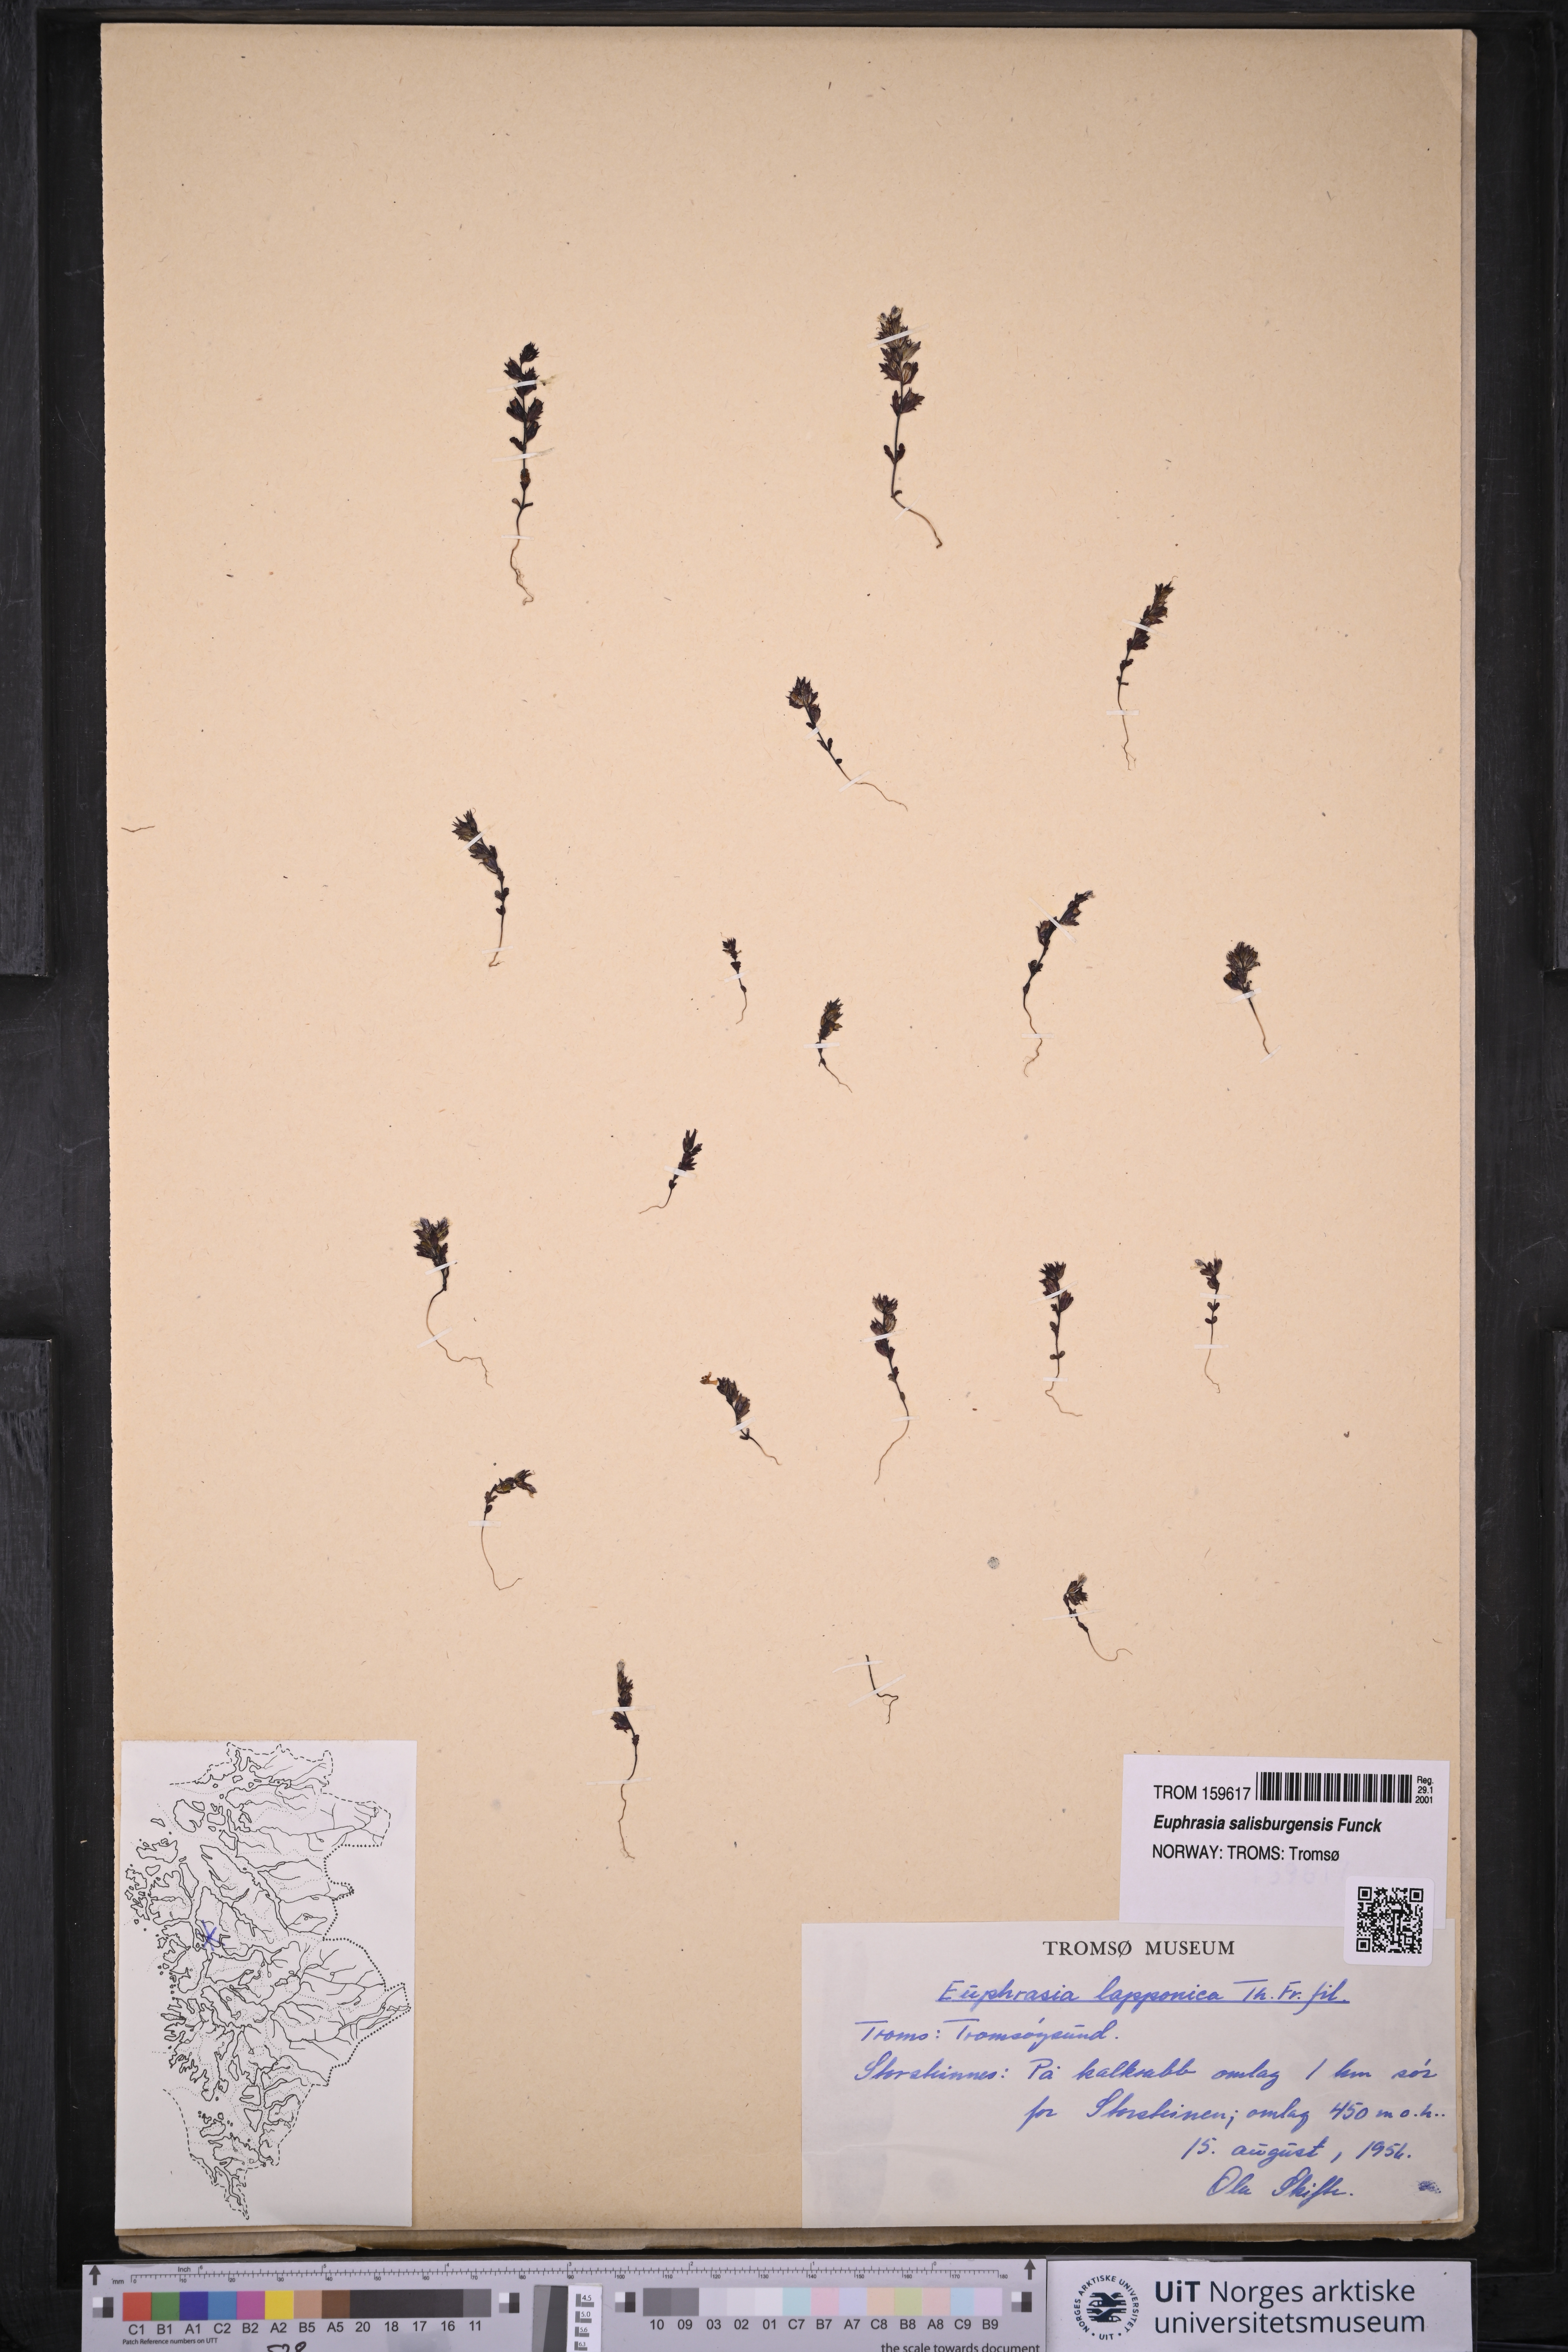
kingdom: Plantae
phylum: Tracheophyta
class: Magnoliopsida
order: Lamiales
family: Orobanchaceae
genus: Euphrasia
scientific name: Euphrasia salisburgensis
